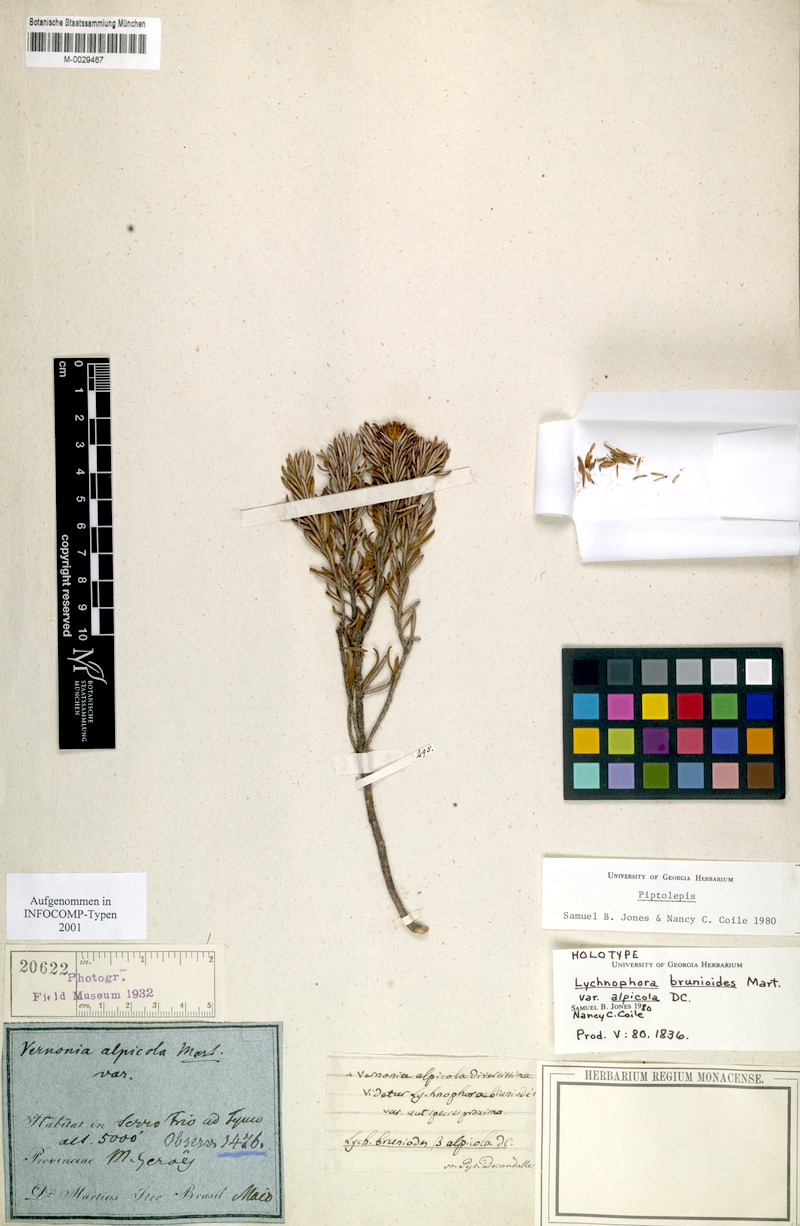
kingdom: Plantae
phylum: Tracheophyta
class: Magnoliopsida
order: Asterales
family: Asteraceae
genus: Lychnophora
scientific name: Lychnophora brunioides
